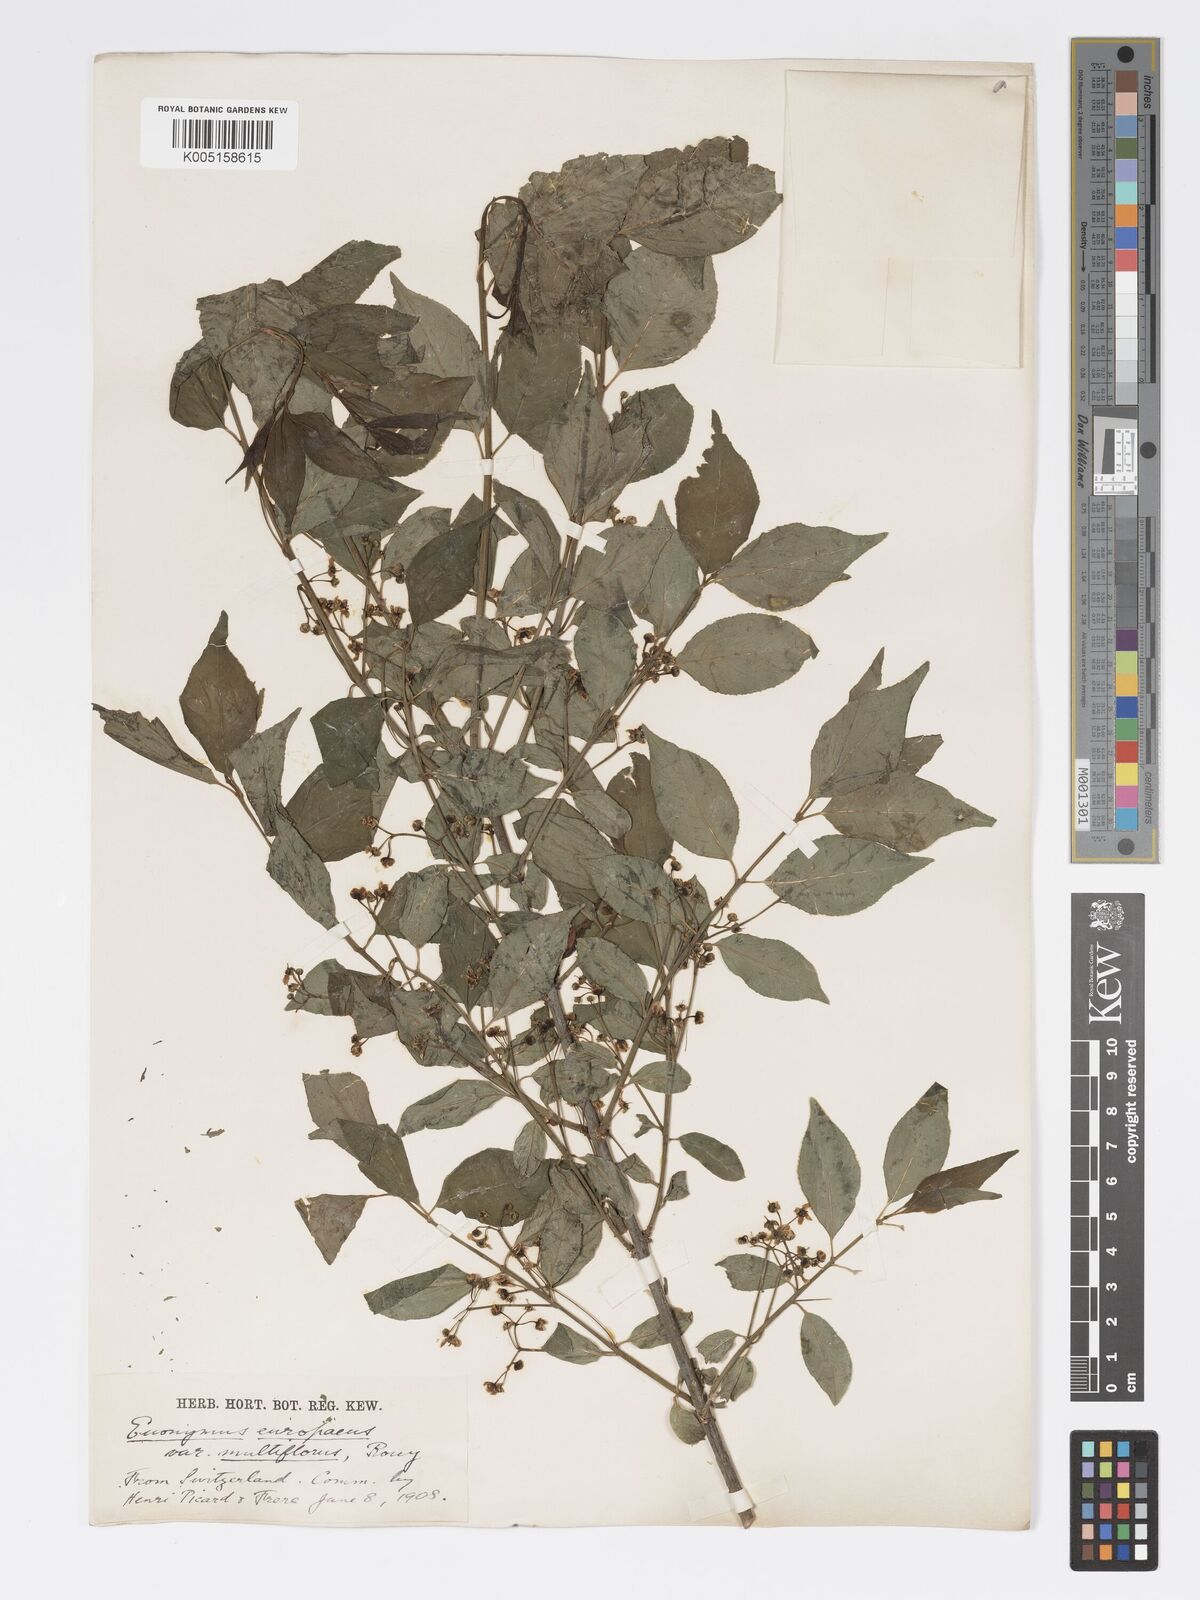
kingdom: Plantae
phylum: Tracheophyta
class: Magnoliopsida
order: Celastrales
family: Celastraceae
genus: Euonymus
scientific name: Euonymus europaeus
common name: Spindle
